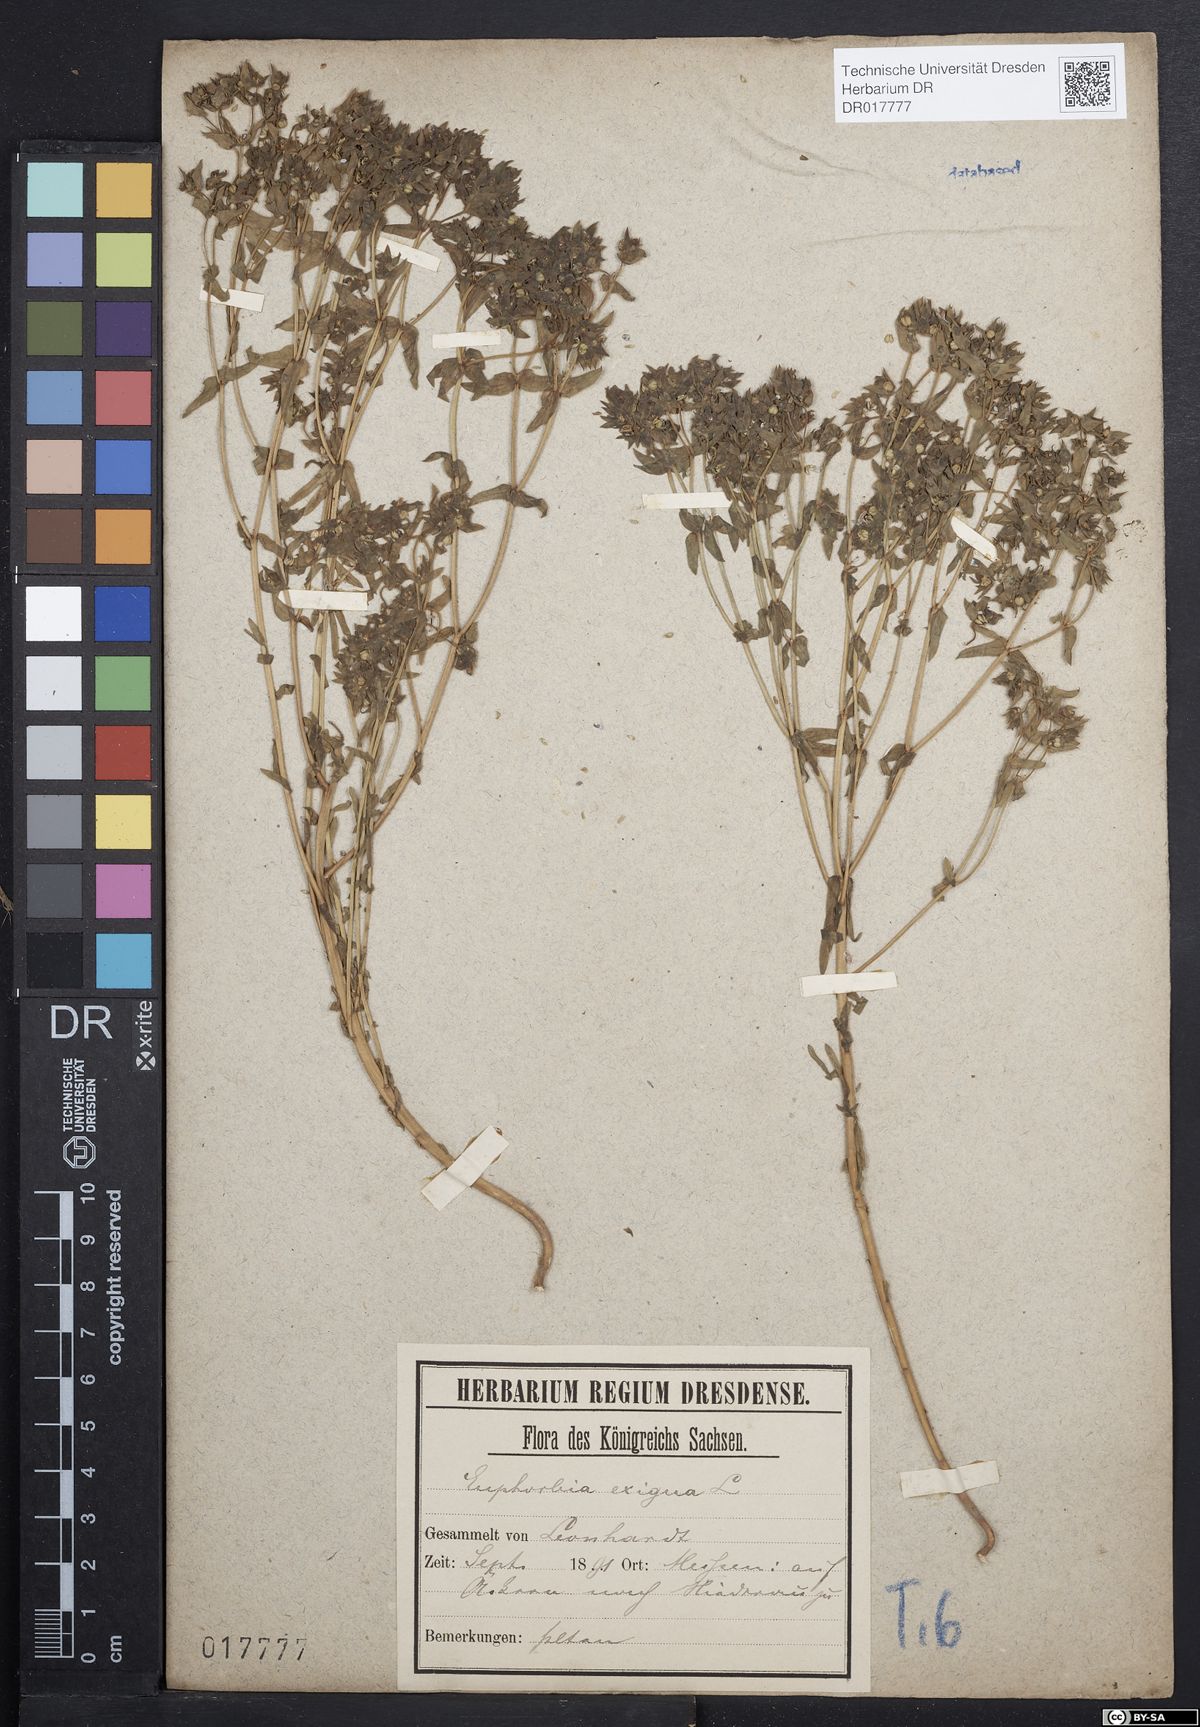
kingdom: Plantae
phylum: Tracheophyta
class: Magnoliopsida
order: Malpighiales
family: Euphorbiaceae
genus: Euphorbia
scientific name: Euphorbia exigua
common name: Dwarf spurge
